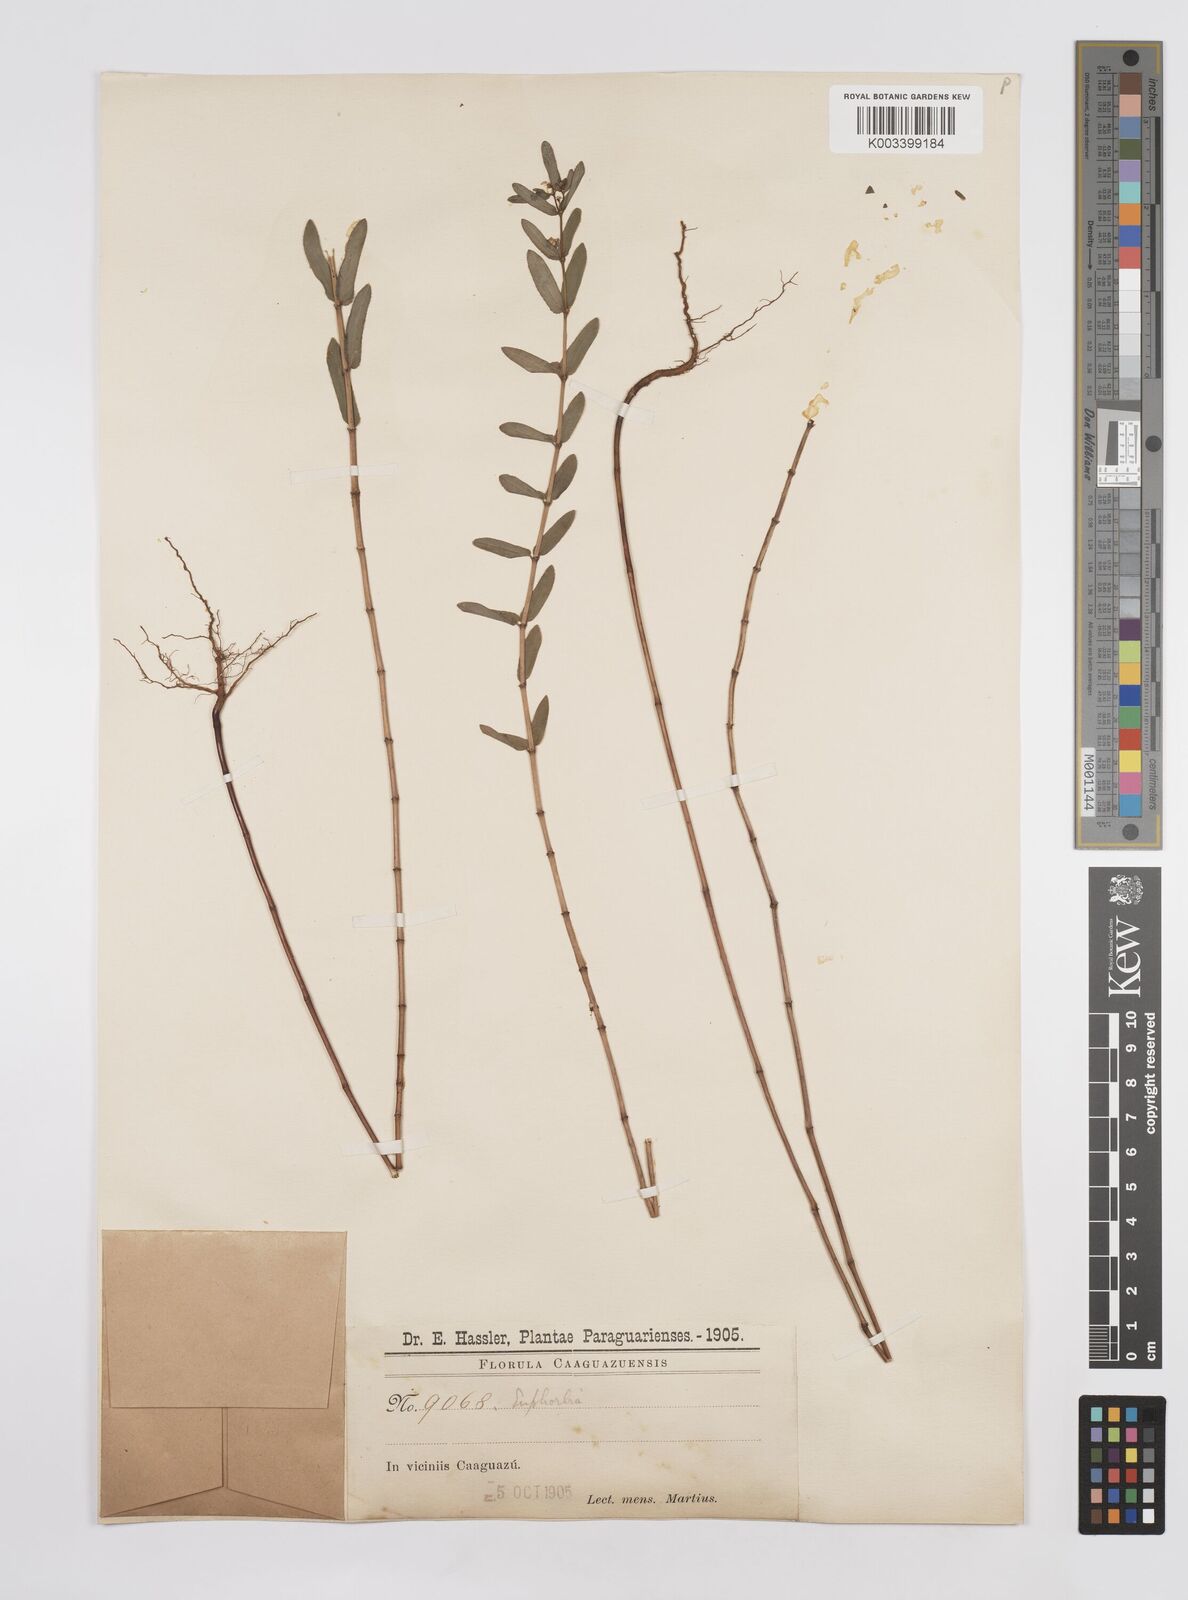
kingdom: Plantae
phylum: Tracheophyta
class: Magnoliopsida
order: Malpighiales
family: Euphorbiaceae
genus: Euphorbia
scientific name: Euphorbia hyssopifolia
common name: Hyssopleaf sandmat
